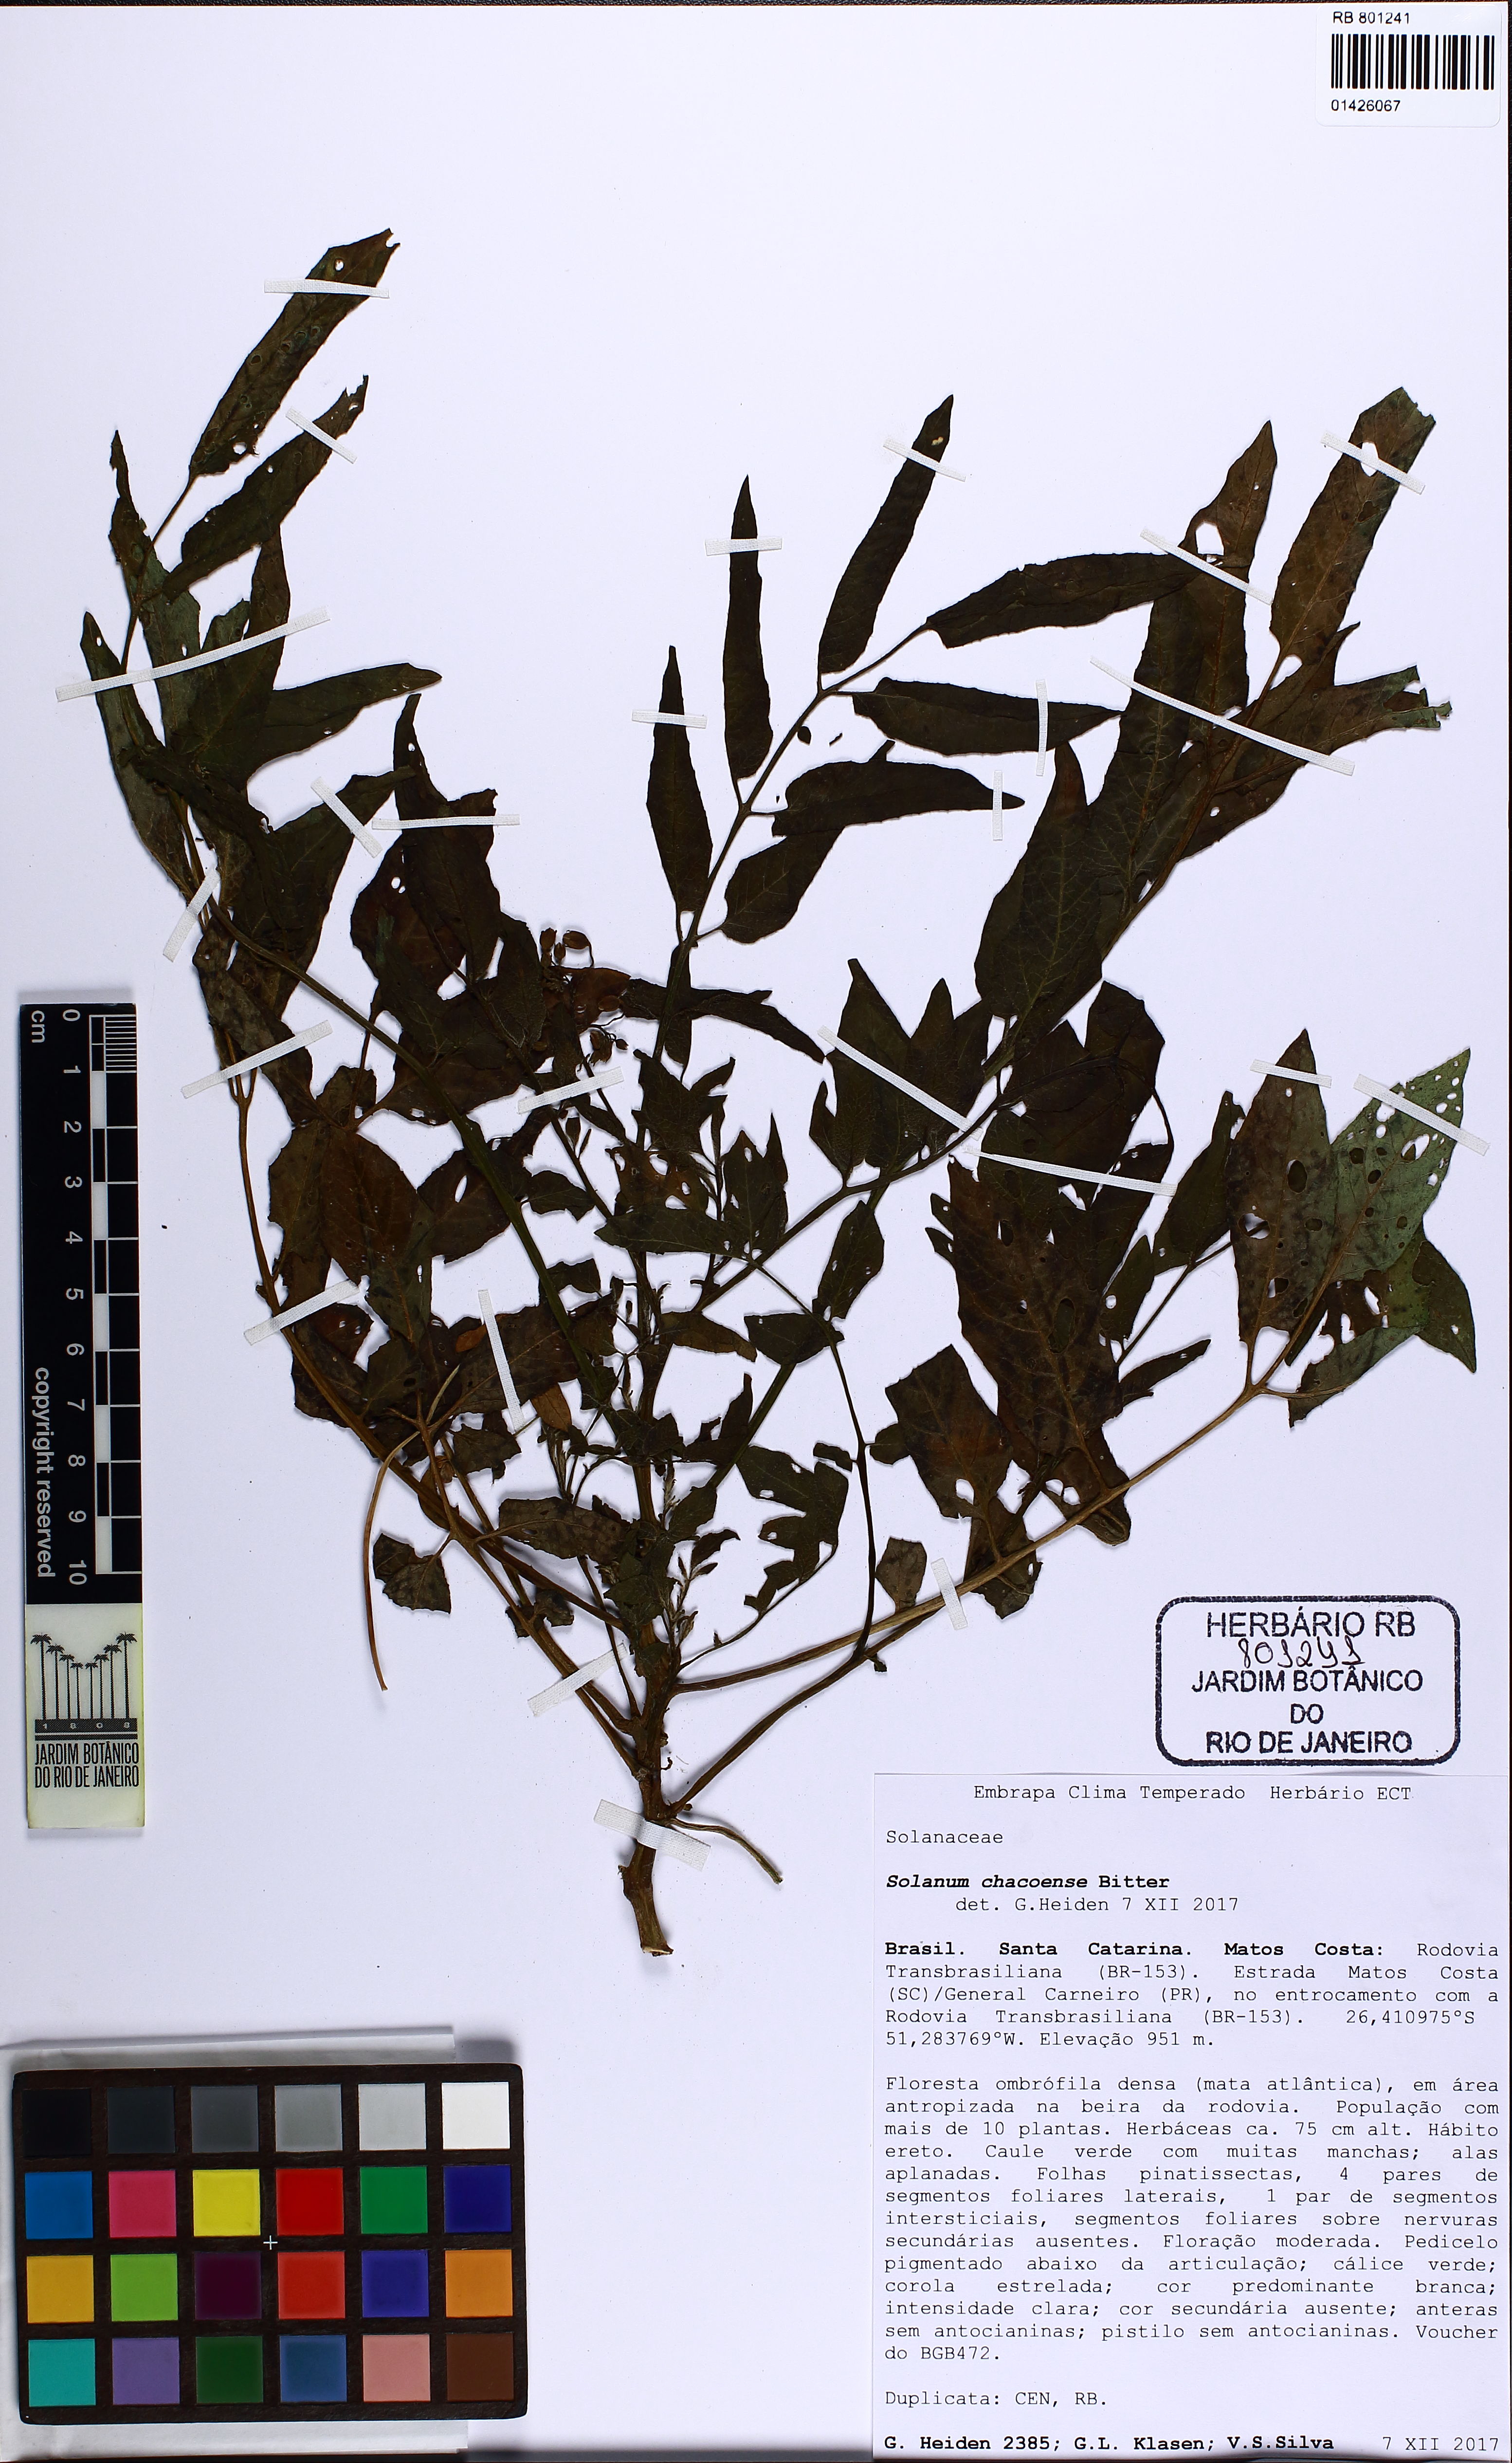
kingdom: Plantae
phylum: Tracheophyta
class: Magnoliopsida
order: Solanales
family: Solanaceae
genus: Solanum
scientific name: Solanum chacoense
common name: Chaco potato
